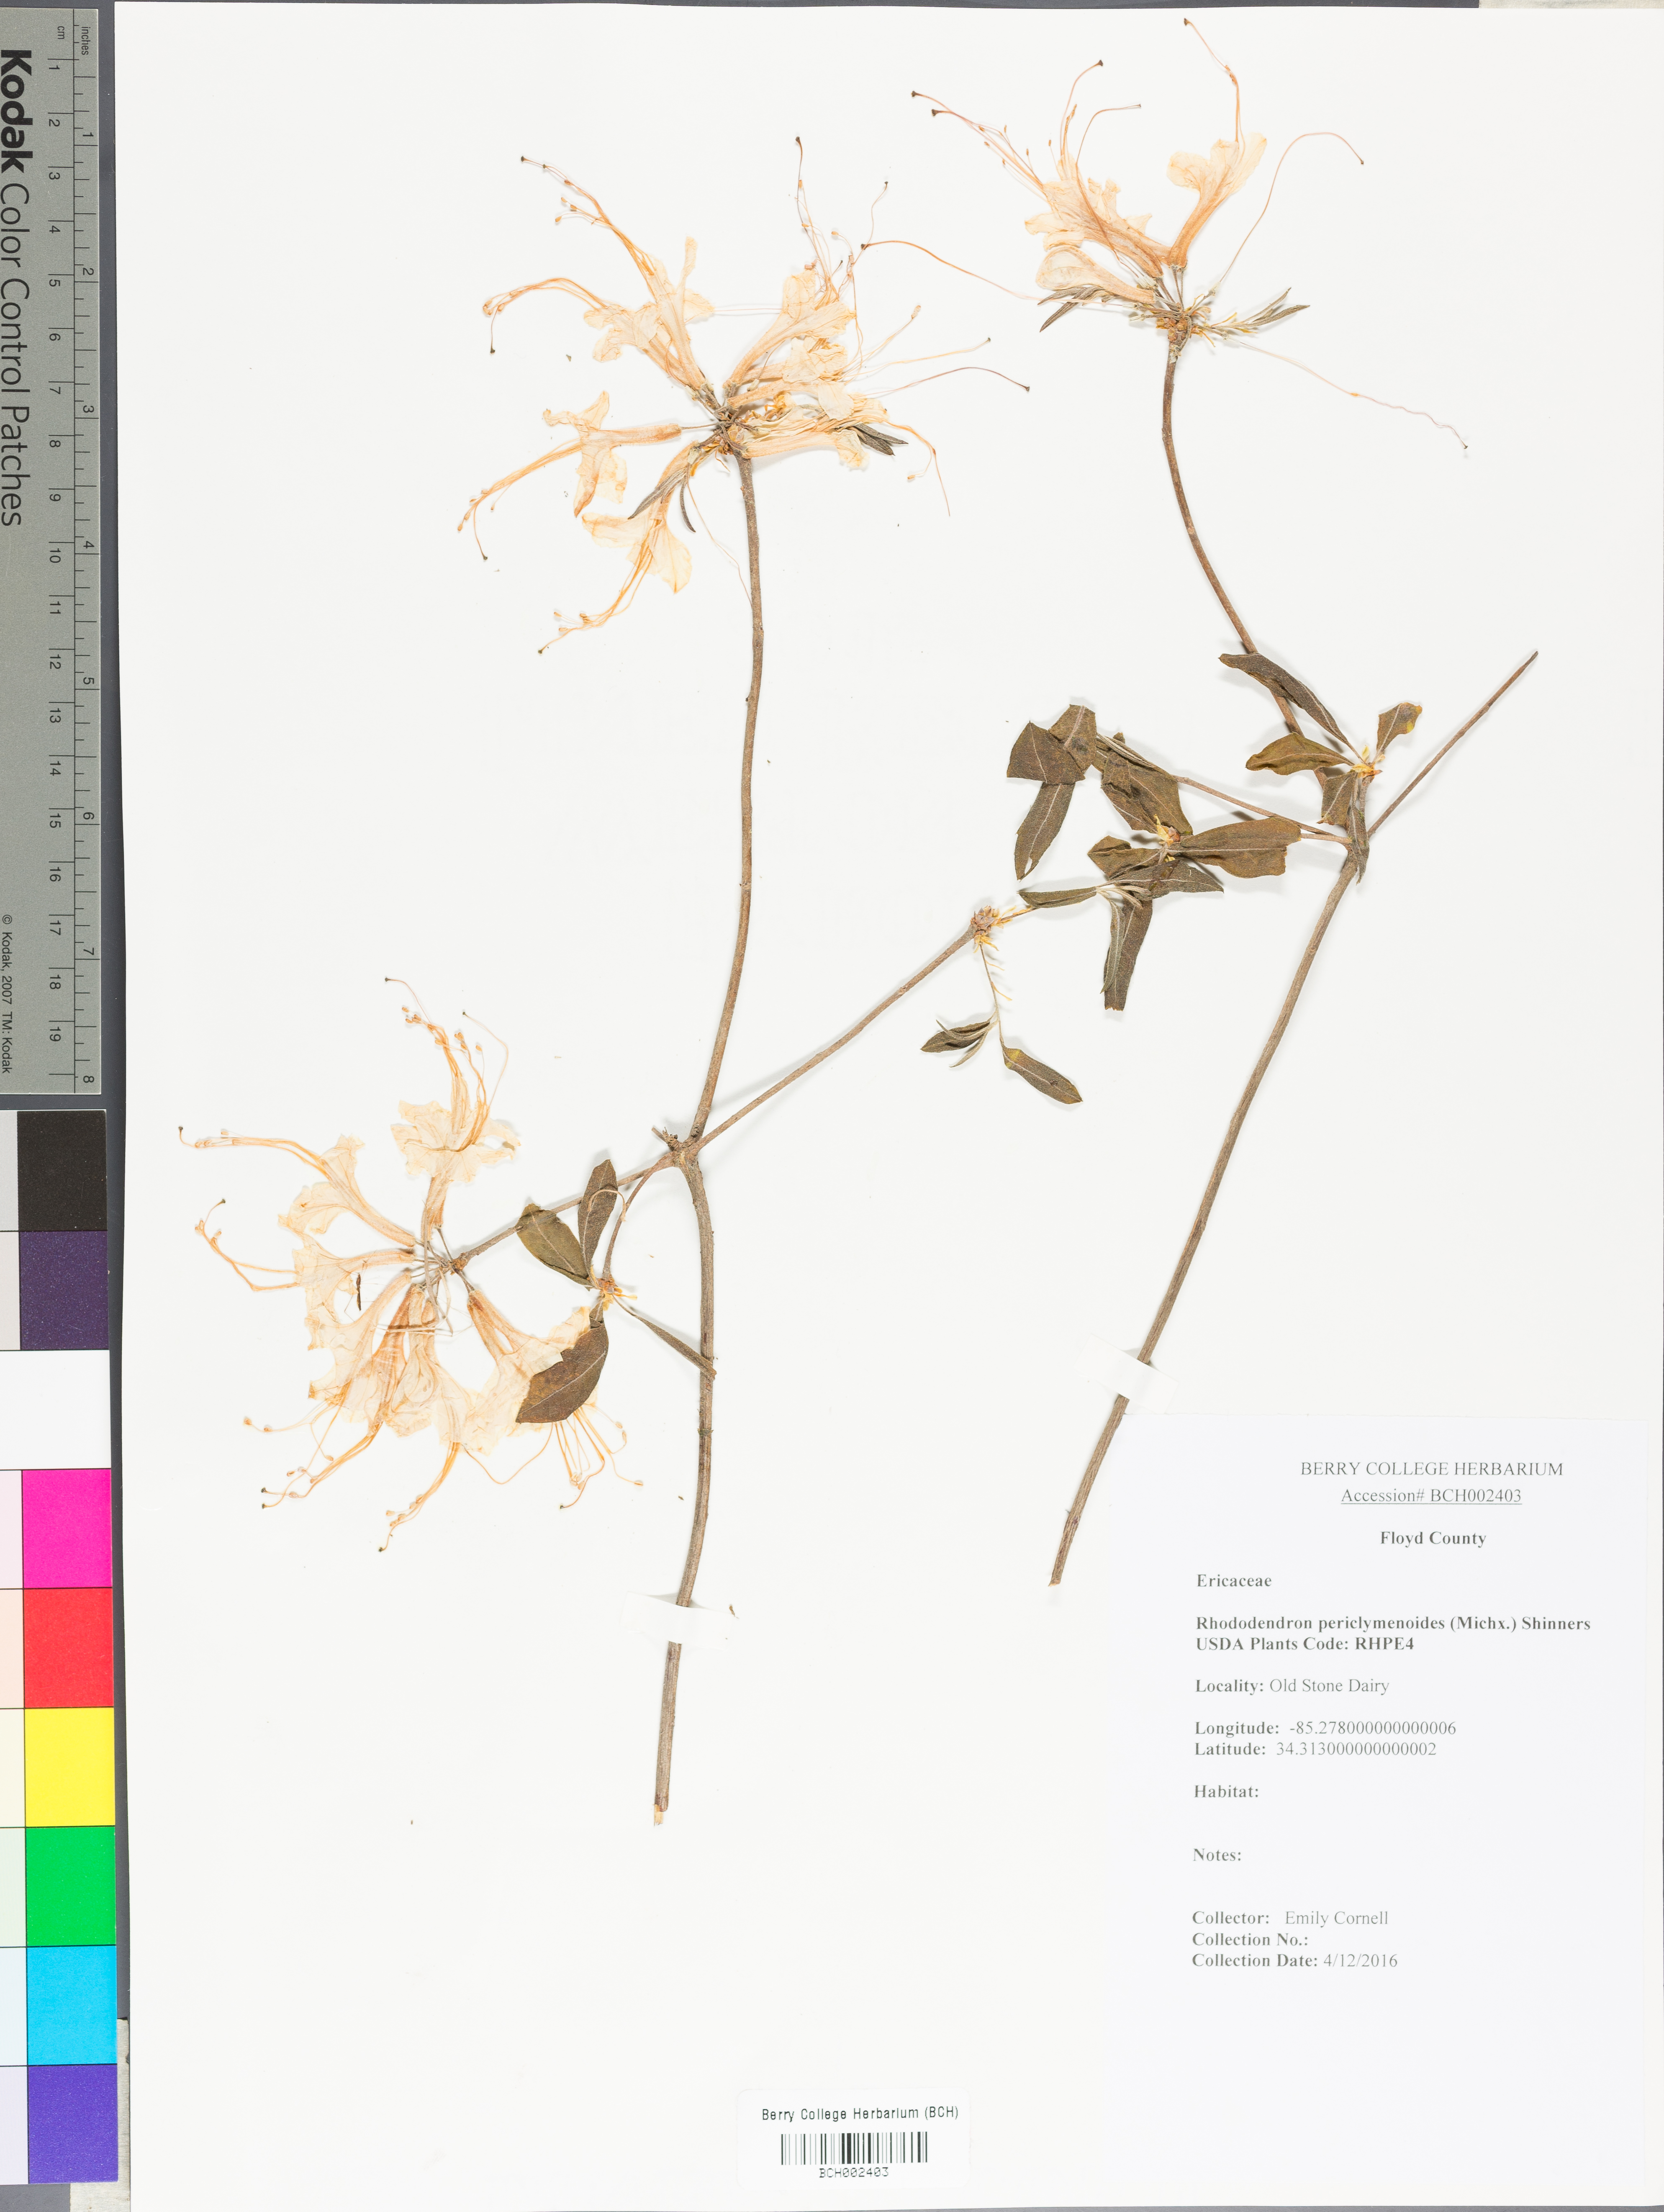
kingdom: Plantae
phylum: Tracheophyta
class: Magnoliopsida
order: Ericales
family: Ericaceae
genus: Rhododendron
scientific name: Rhododendron periclymenoides
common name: Election-pink
